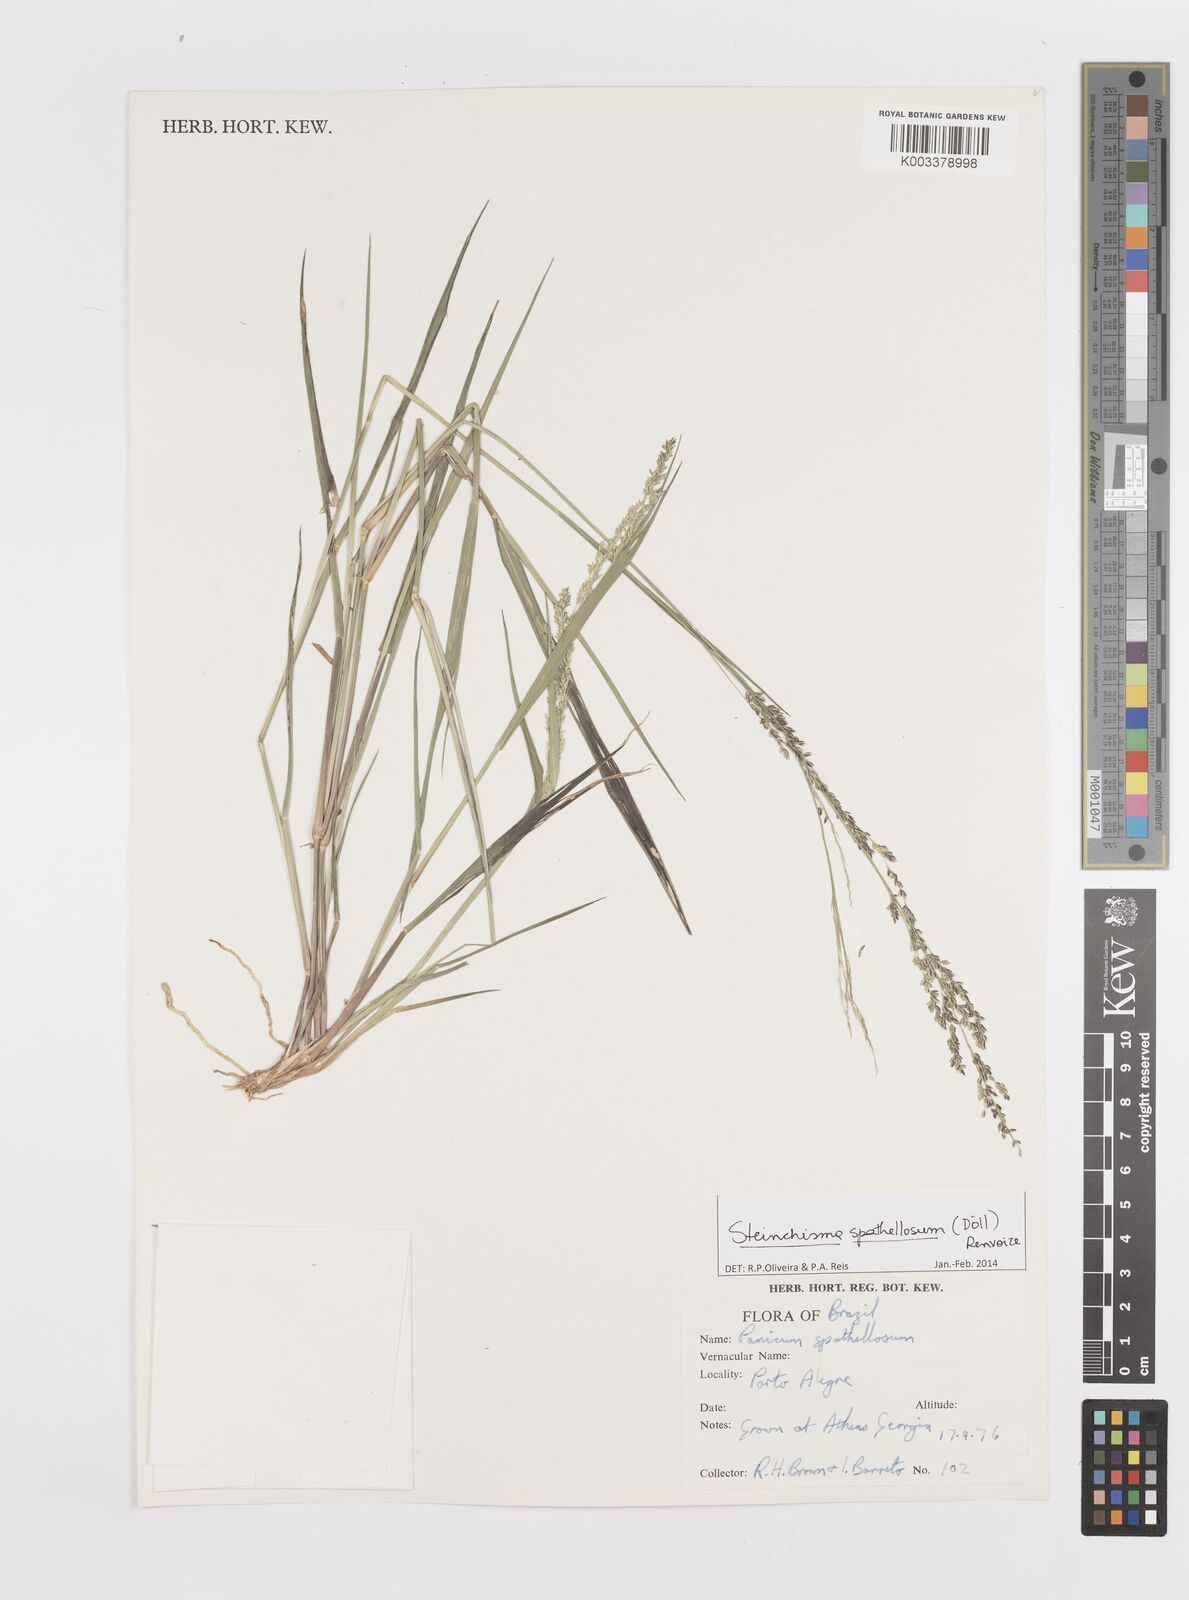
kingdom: Plantae
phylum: Tracheophyta
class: Liliopsida
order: Poales
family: Poaceae
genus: Steinchisma
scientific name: Steinchisma spathellosum
